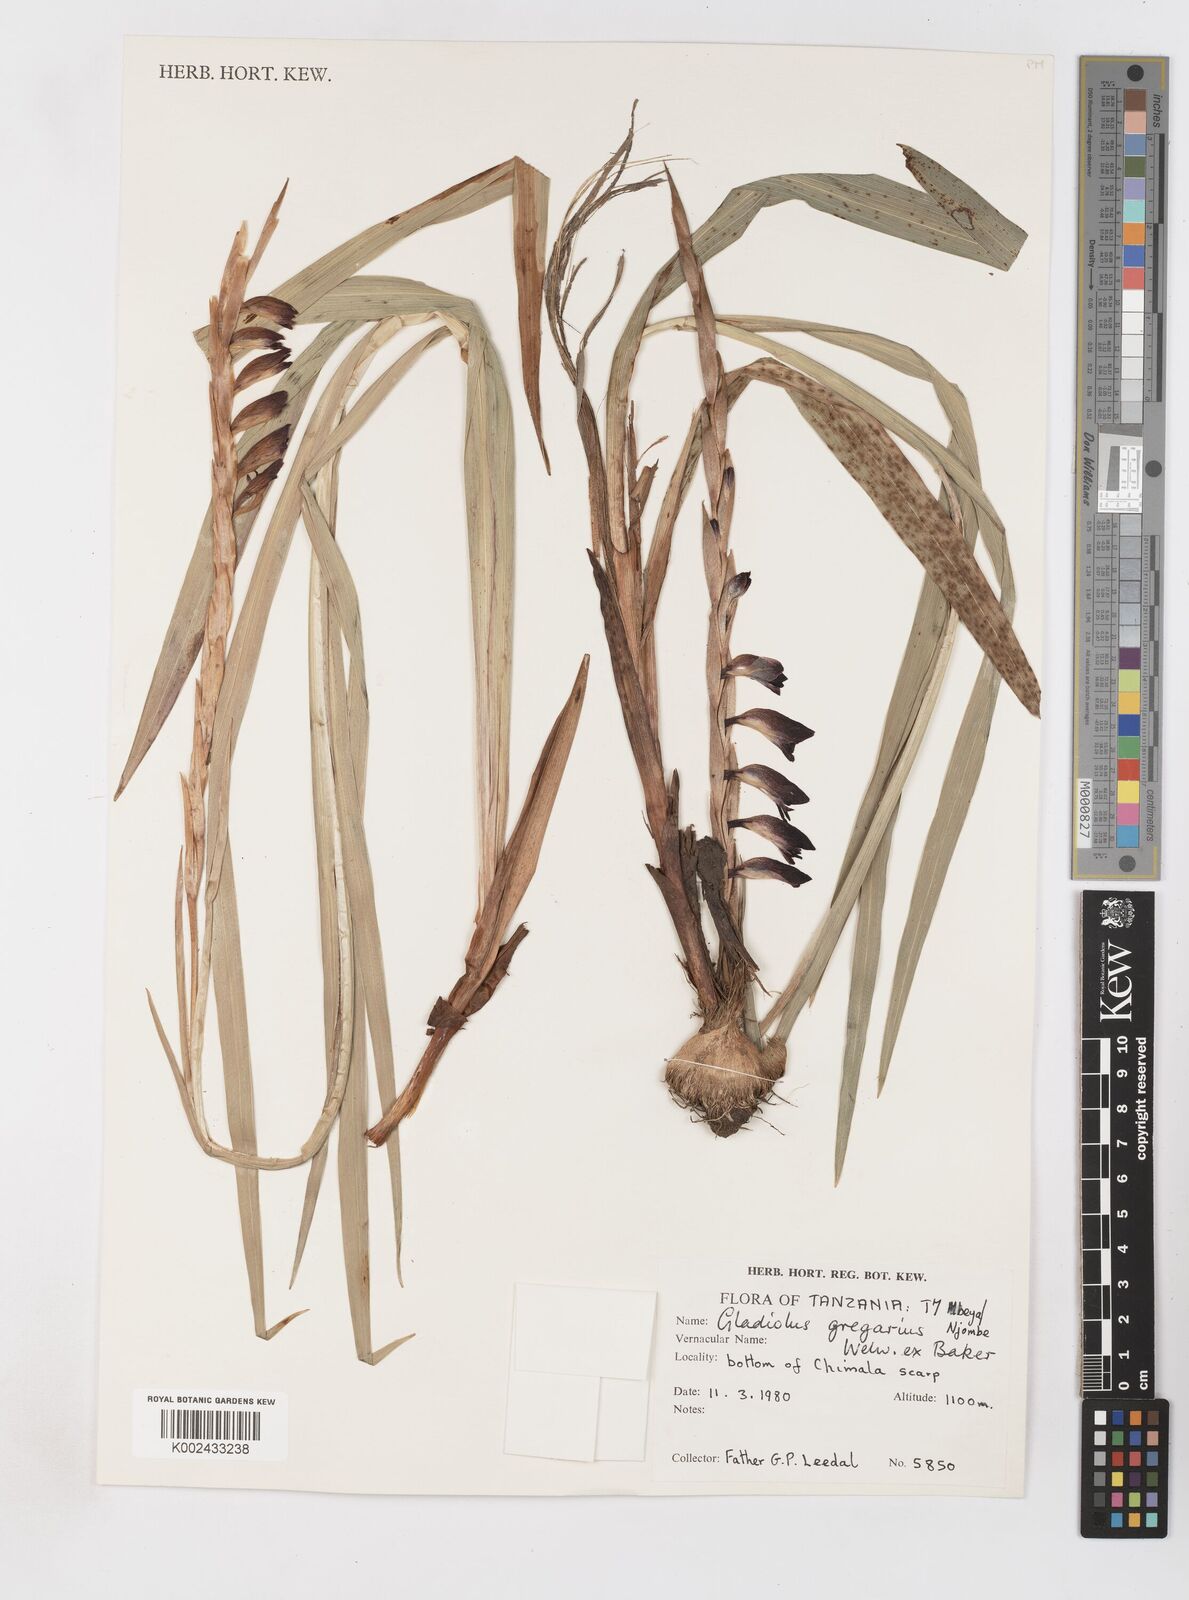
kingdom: Plantae
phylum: Tracheophyta
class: Liliopsida
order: Asparagales
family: Iridaceae
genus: Gladiolus
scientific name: Gladiolus gregarius
